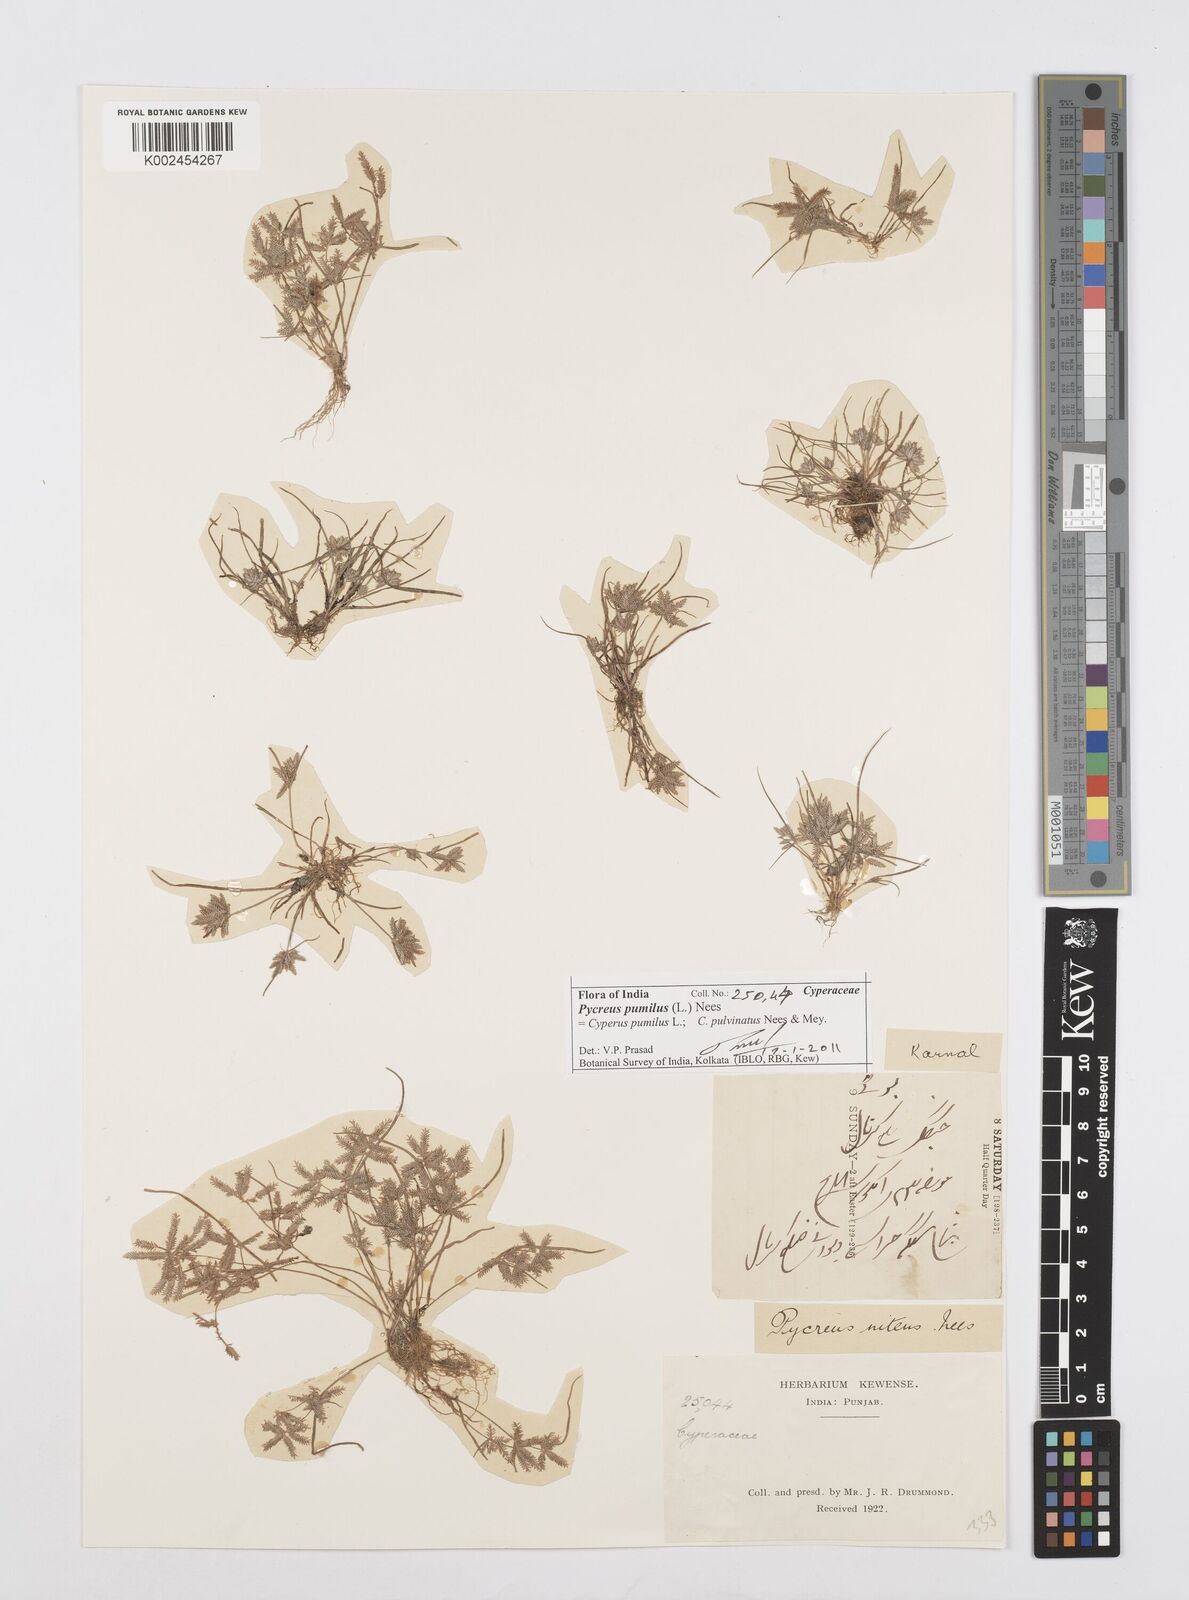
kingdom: Plantae
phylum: Tracheophyta
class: Liliopsida
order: Poales
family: Cyperaceae
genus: Cyperus
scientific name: Cyperus pumilus
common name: Low flatsedge
